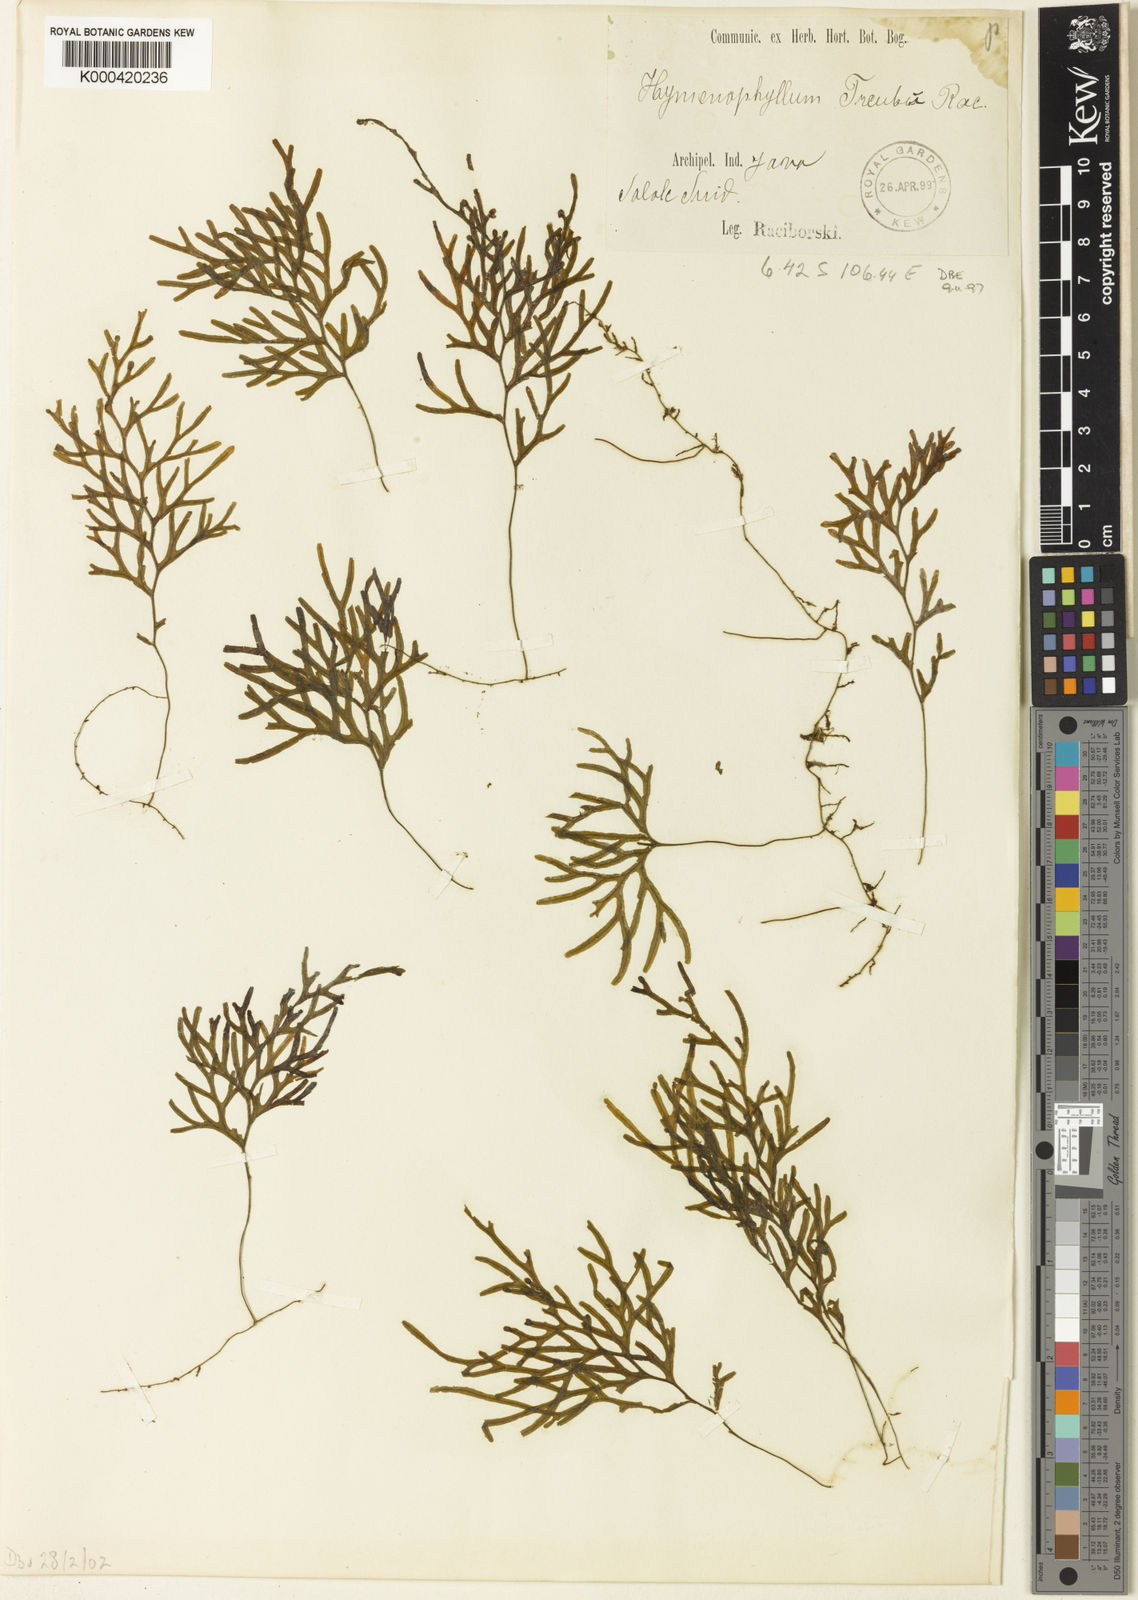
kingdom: Plantae
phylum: Tracheophyta
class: Polypodiopsida
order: Hymenophyllales
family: Hymenophyllaceae
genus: Hymenophyllum
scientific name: Hymenophyllum treubii
